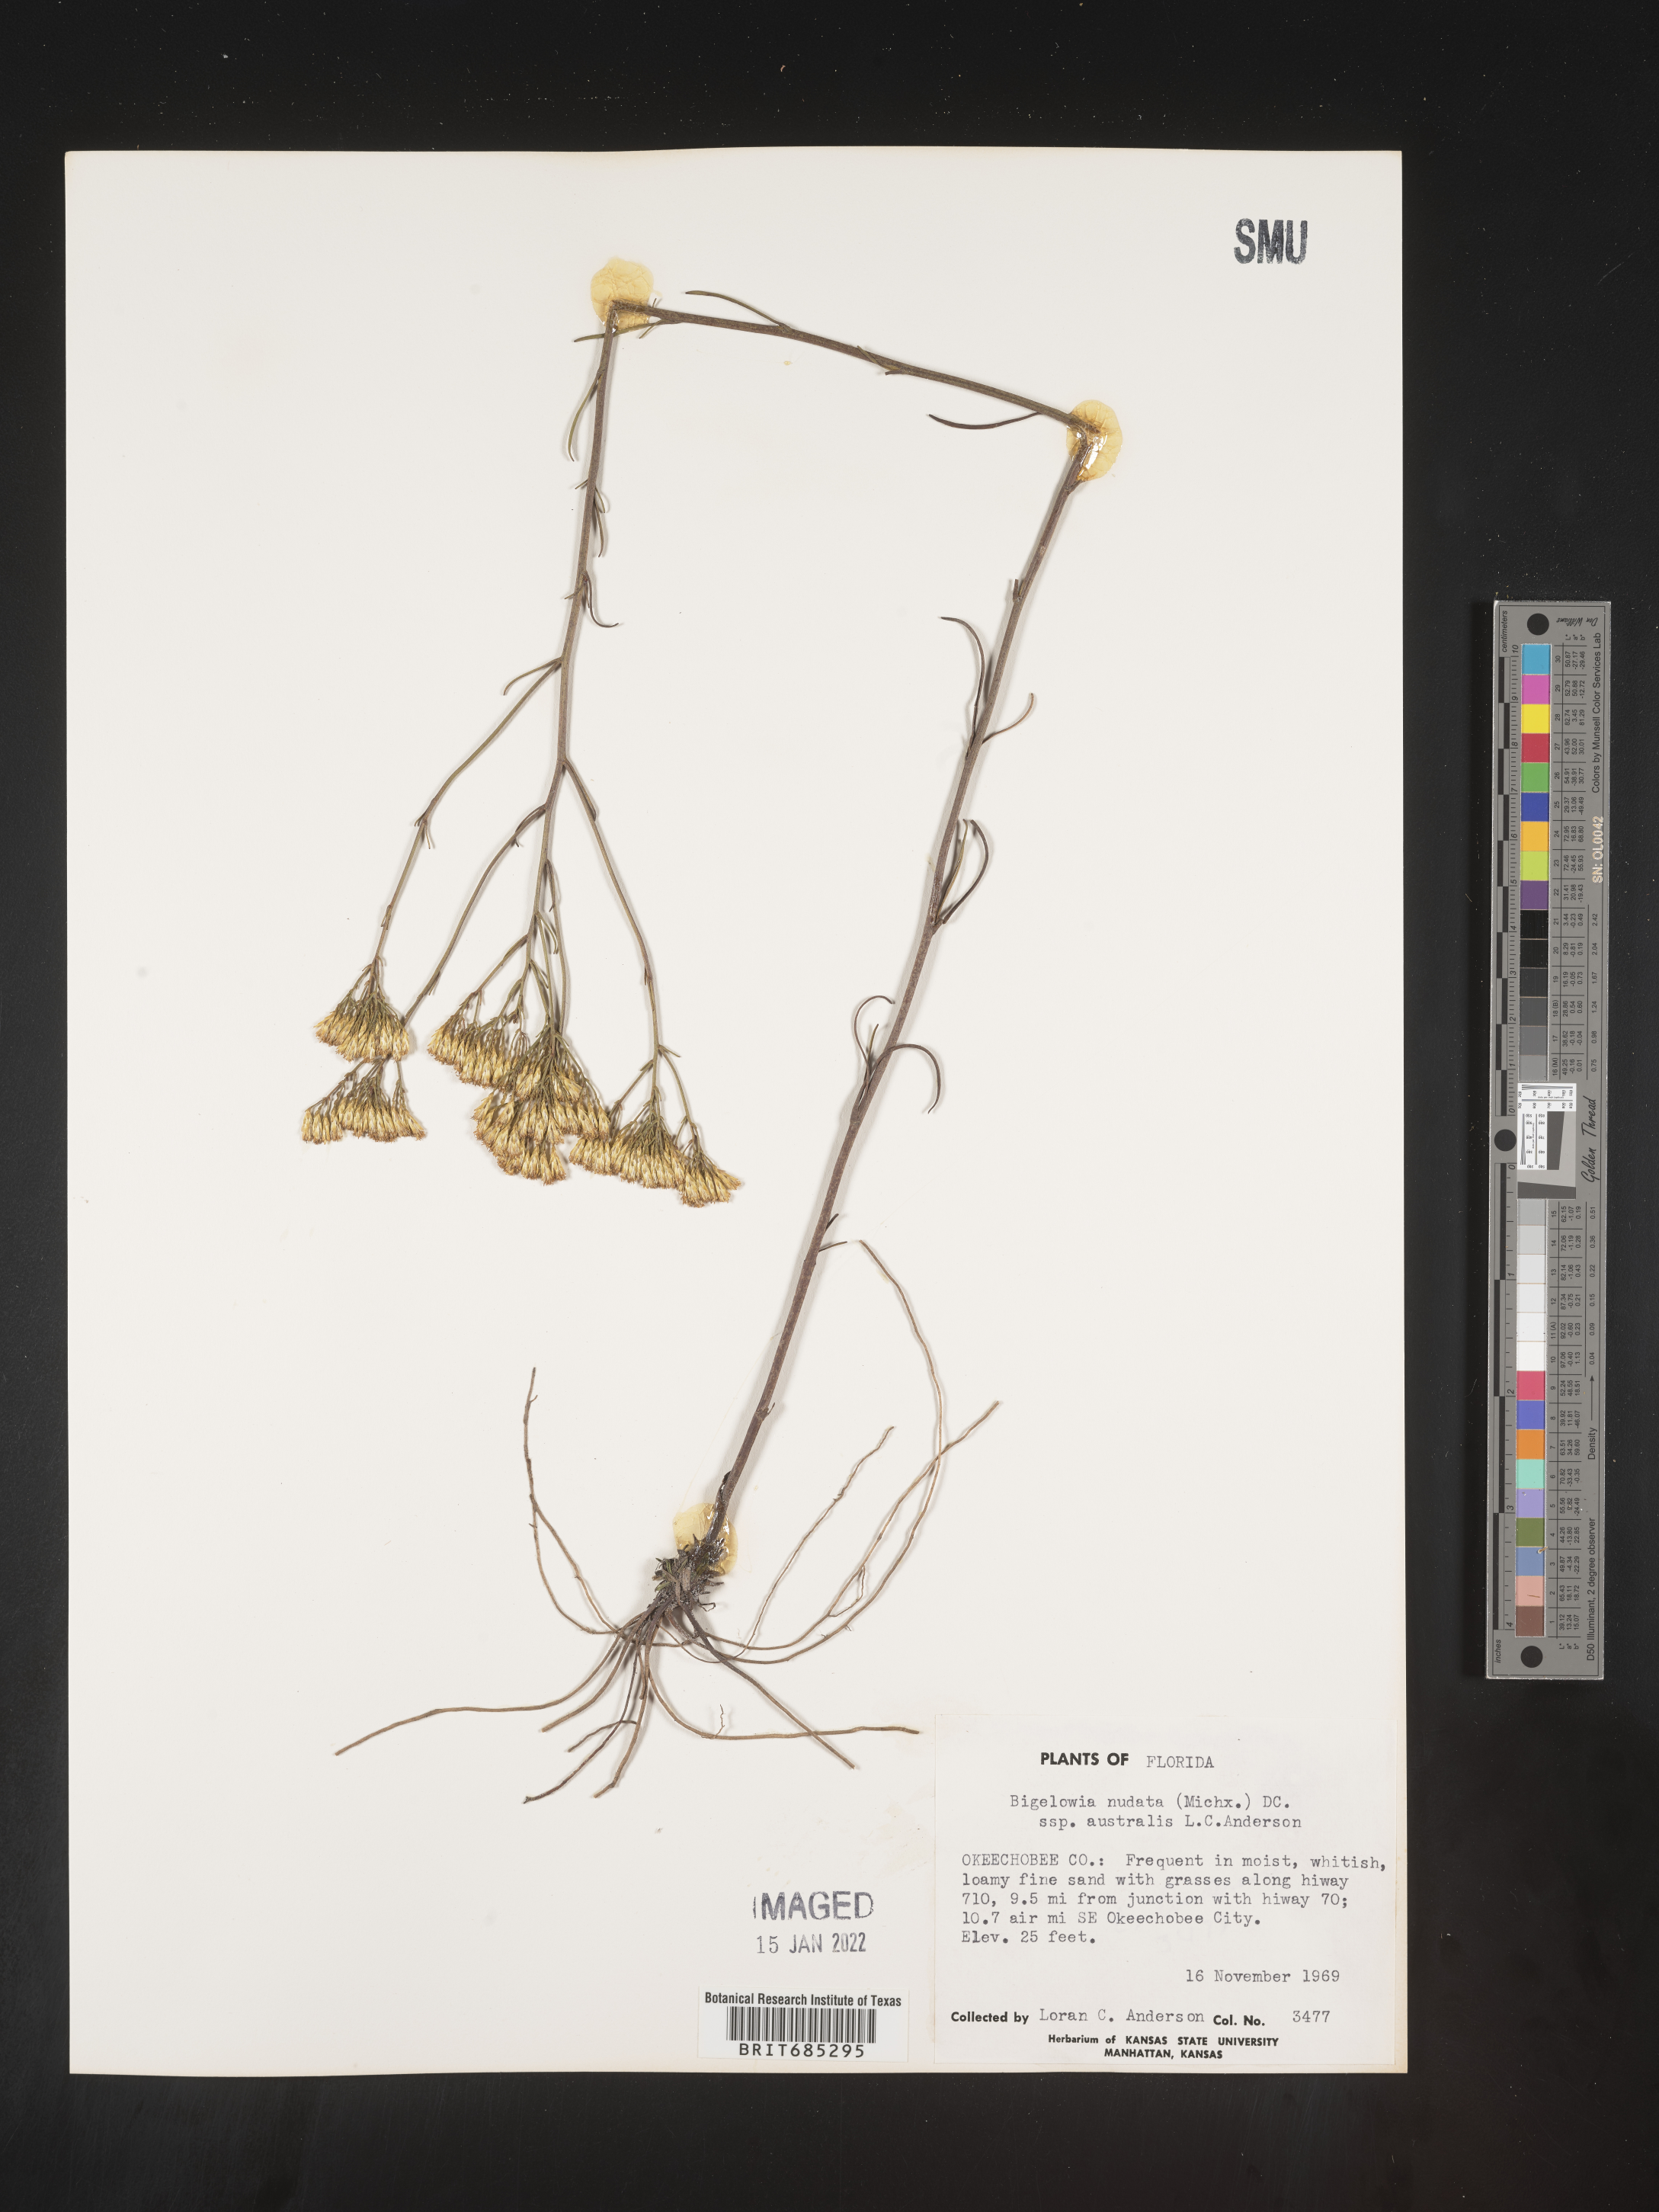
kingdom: Plantae
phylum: Tracheophyta
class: Magnoliopsida
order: Asterales
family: Asteraceae
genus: Bigelowia
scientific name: Bigelowia nudata
